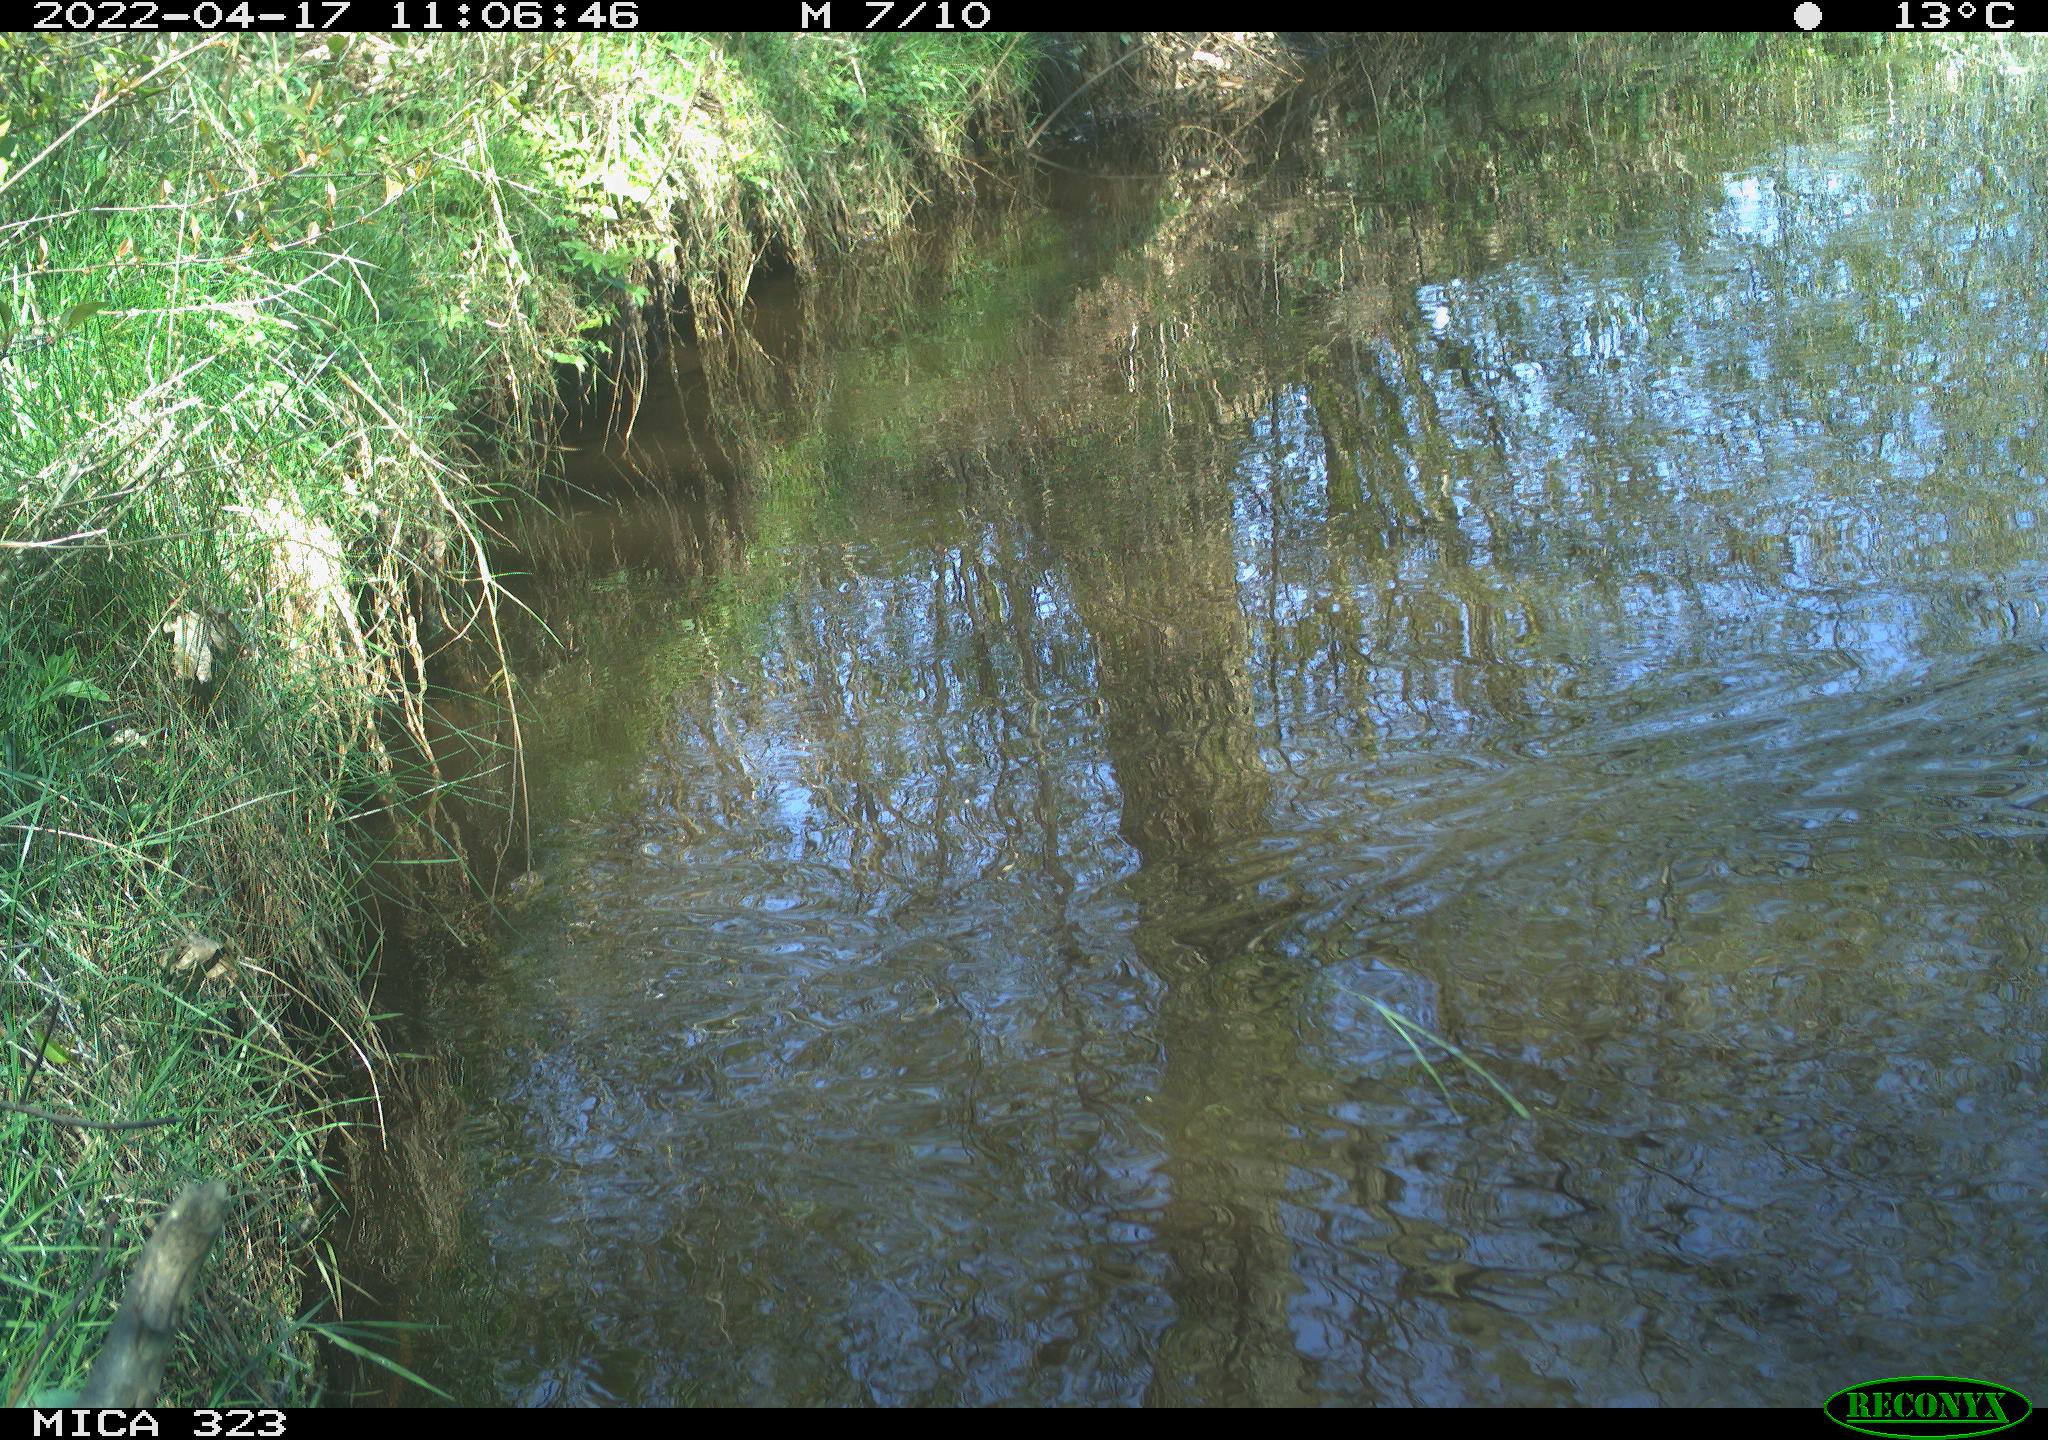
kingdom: Animalia
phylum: Chordata
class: Aves
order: Gruiformes
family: Rallidae
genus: Gallinula
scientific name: Gallinula chloropus
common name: Common moorhen
